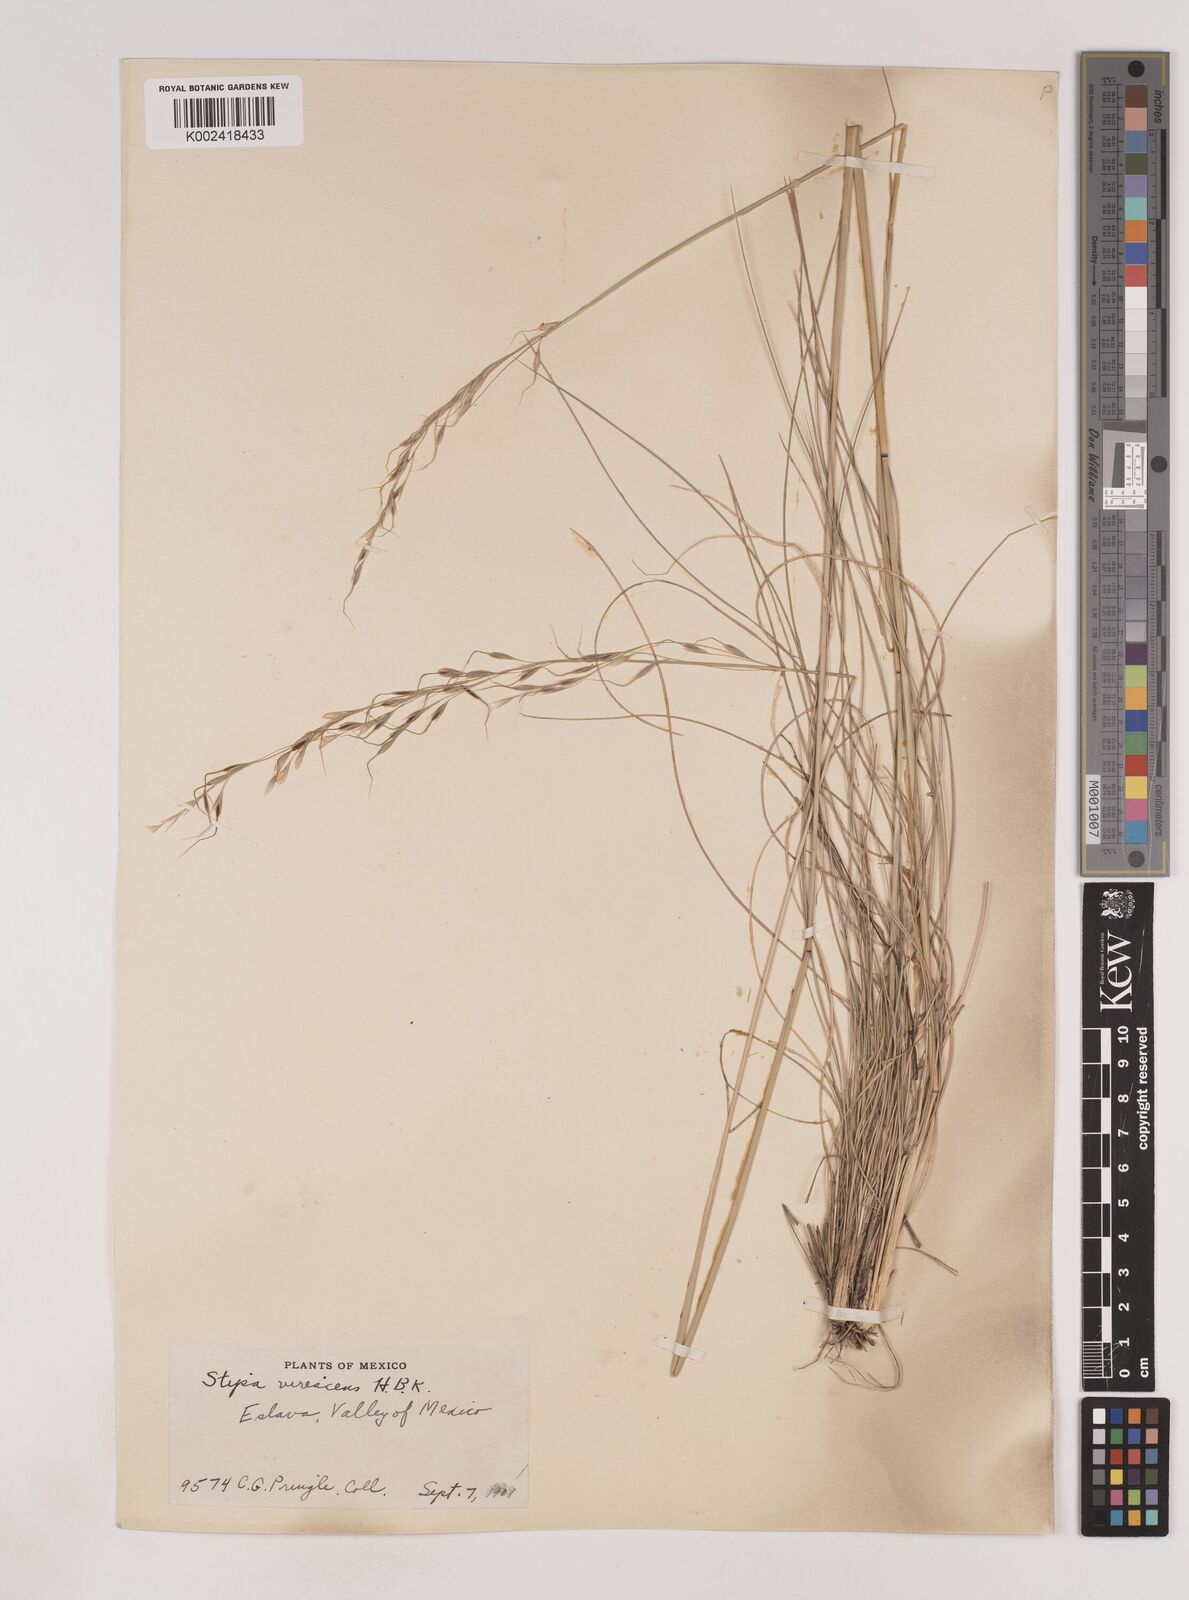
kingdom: Plantae
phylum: Tracheophyta
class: Liliopsida
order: Poales
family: Poaceae
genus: Piptochaetium
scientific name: Piptochaetium virescens
